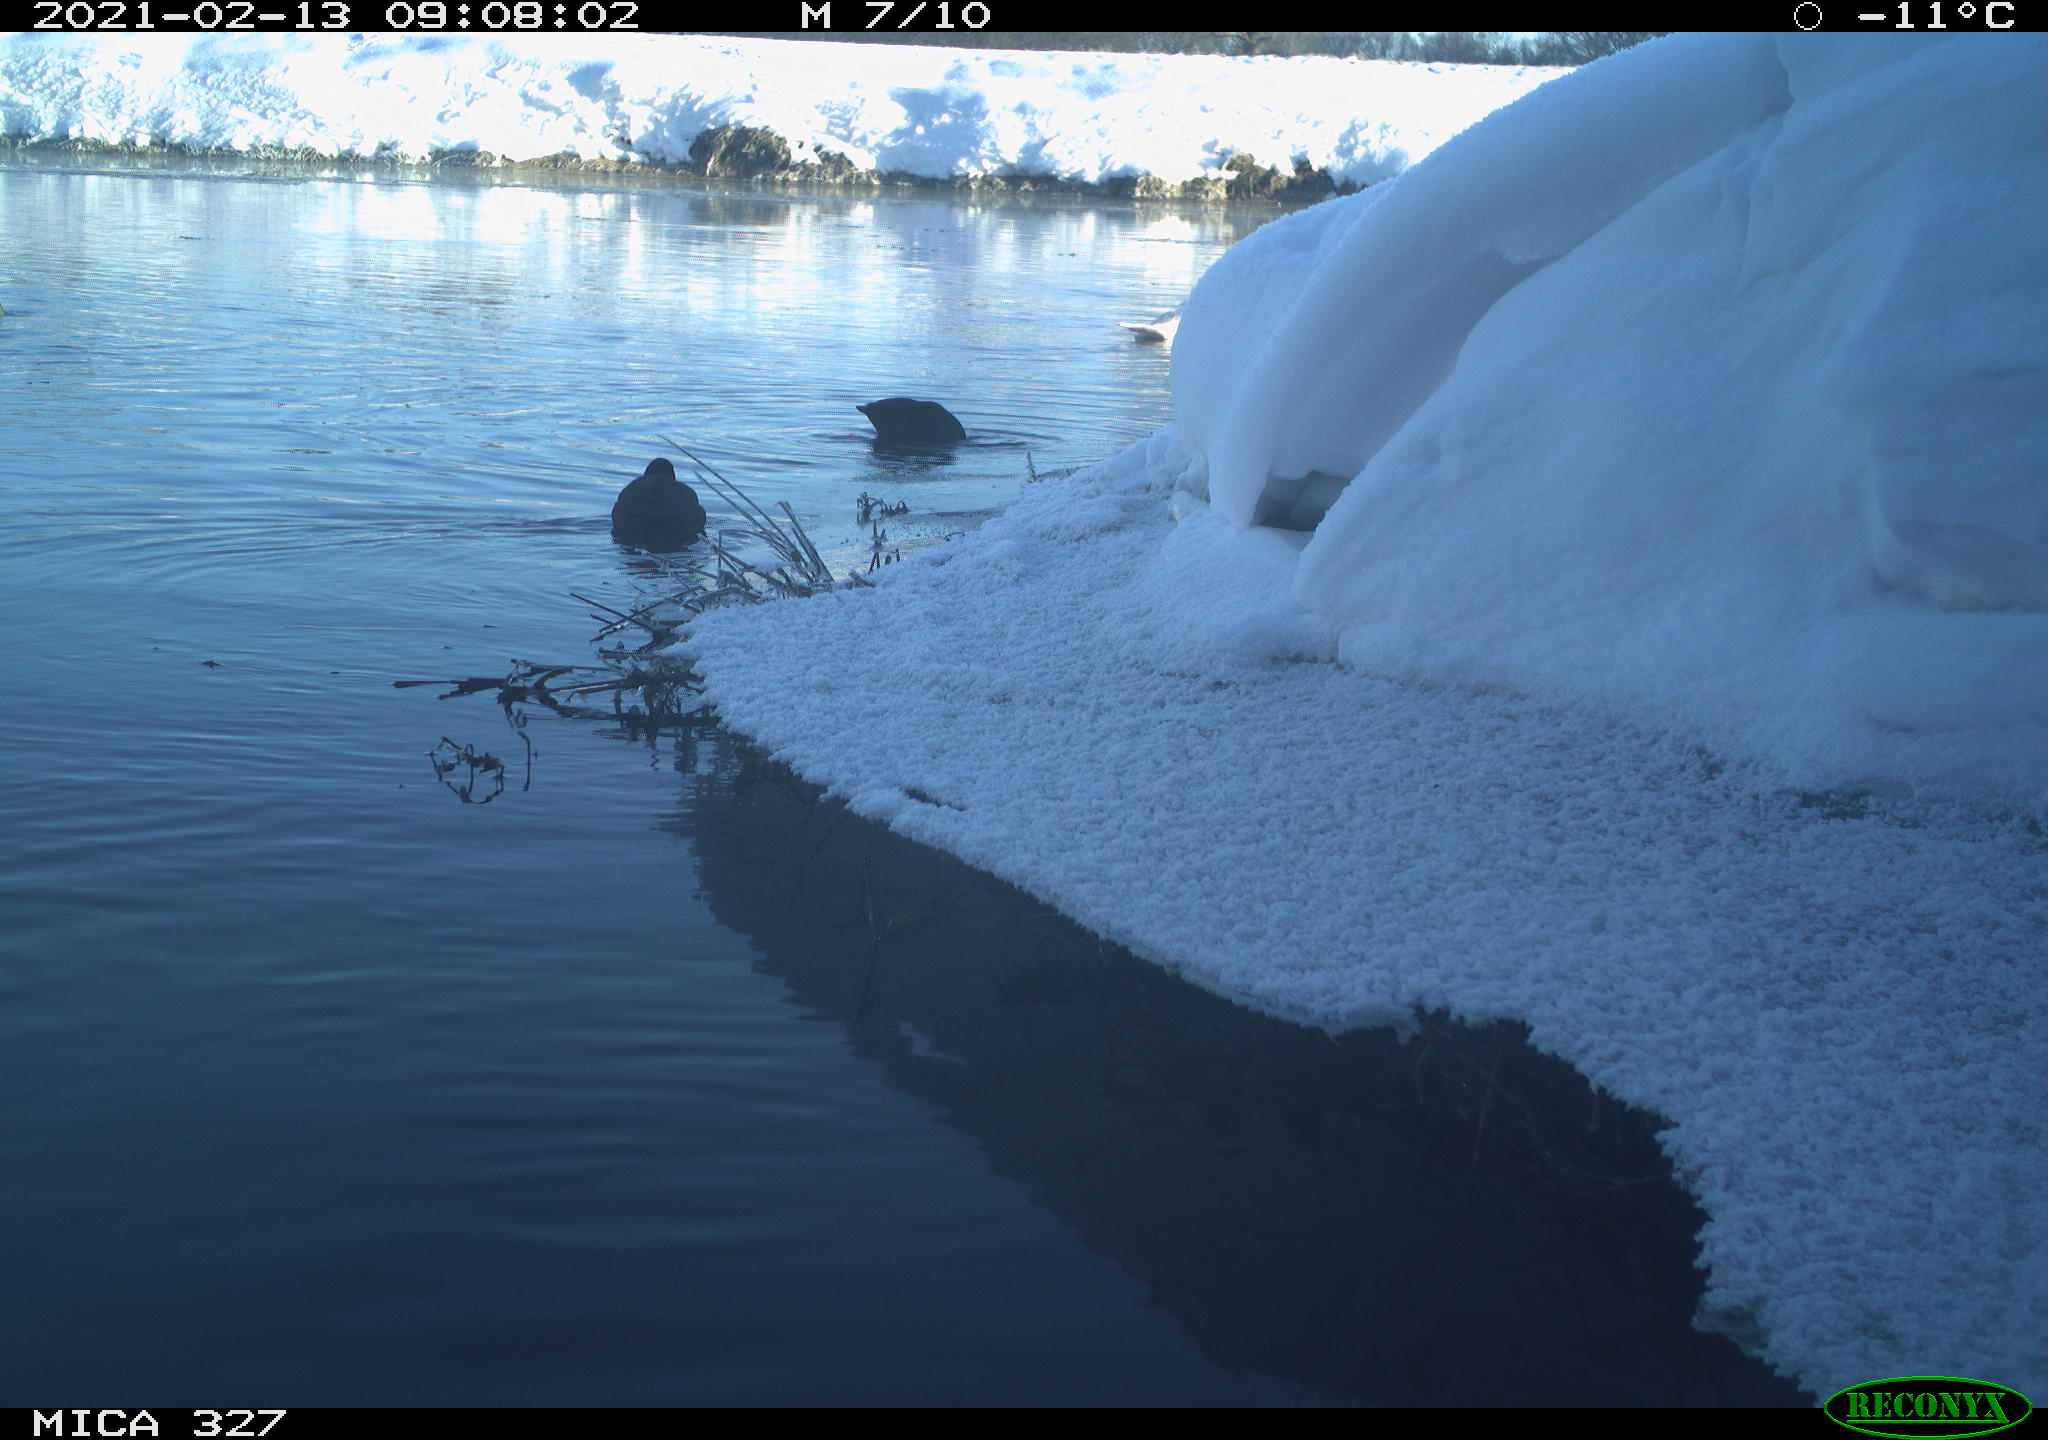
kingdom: Animalia
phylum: Chordata
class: Aves
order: Anseriformes
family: Anatidae
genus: Cygnus
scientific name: Cygnus olor
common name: Mute swan
